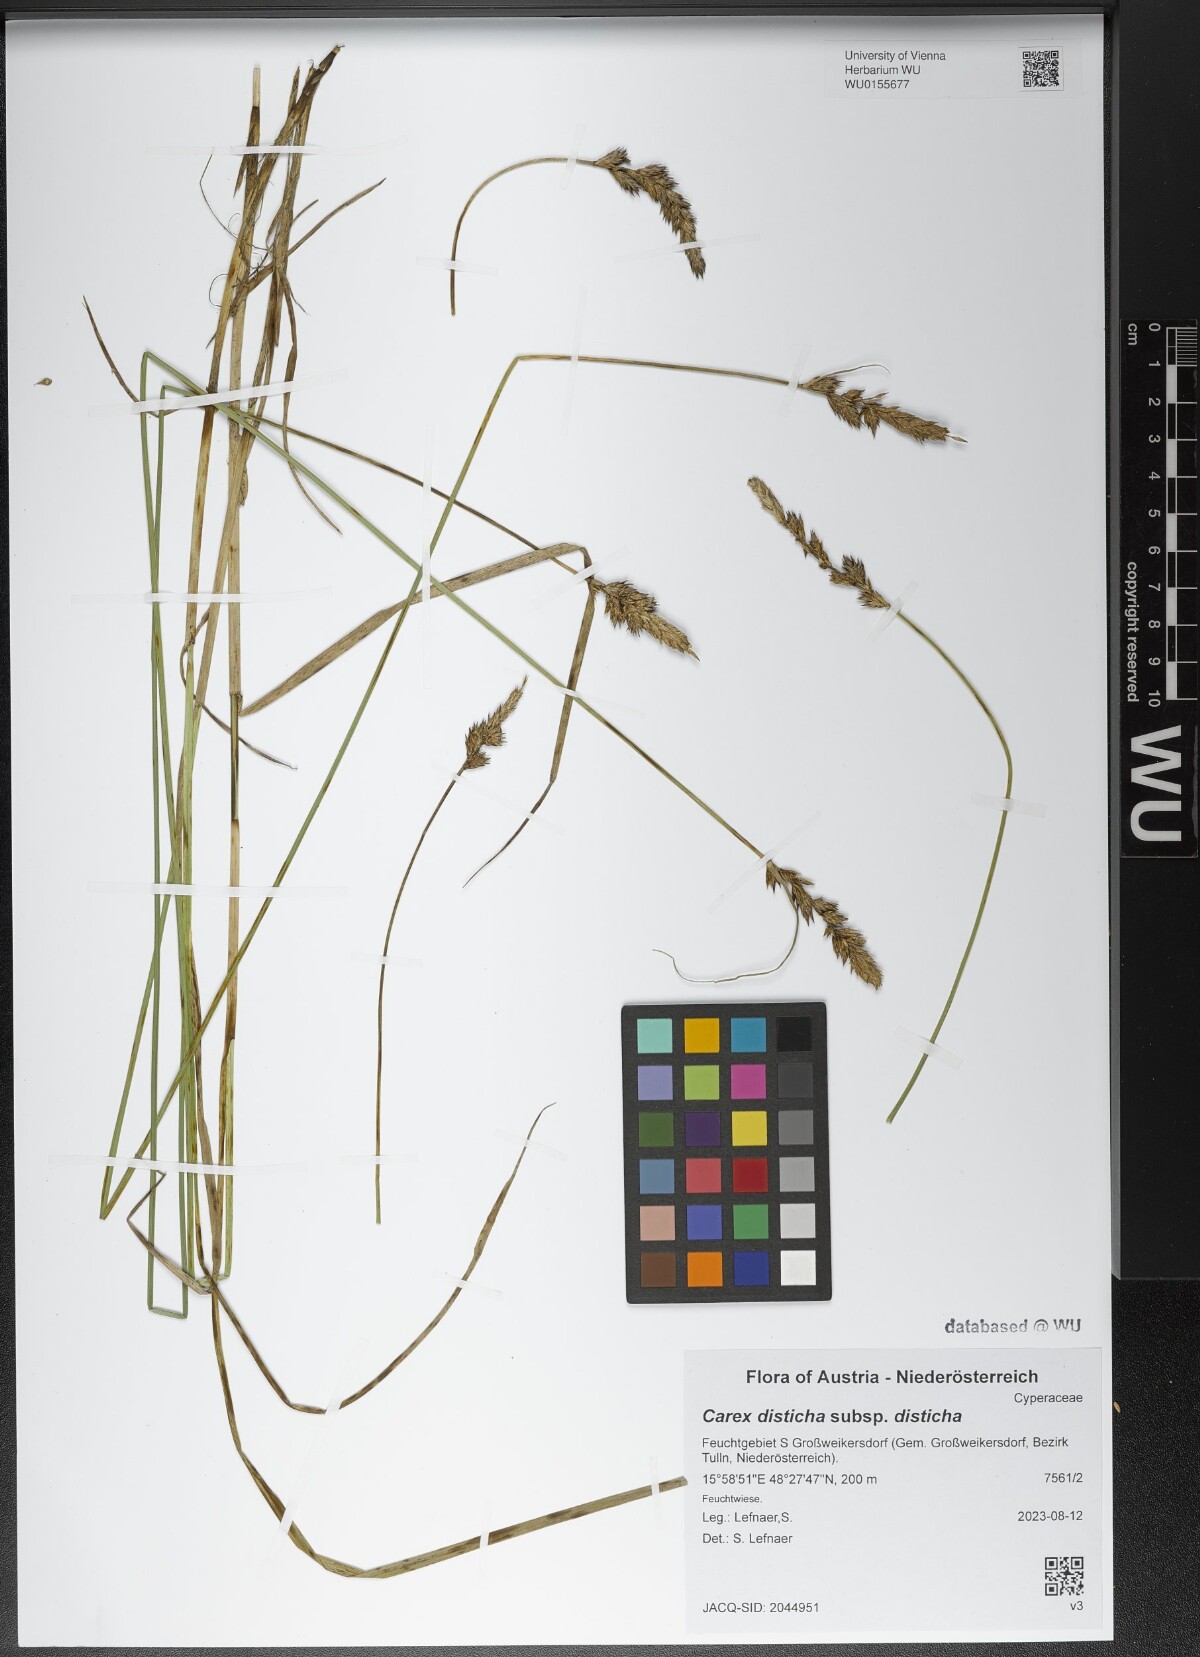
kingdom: Plantae
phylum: Tracheophyta
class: Liliopsida
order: Poales
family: Cyperaceae
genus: Carex
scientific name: Carex disticha
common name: Brown sedge
